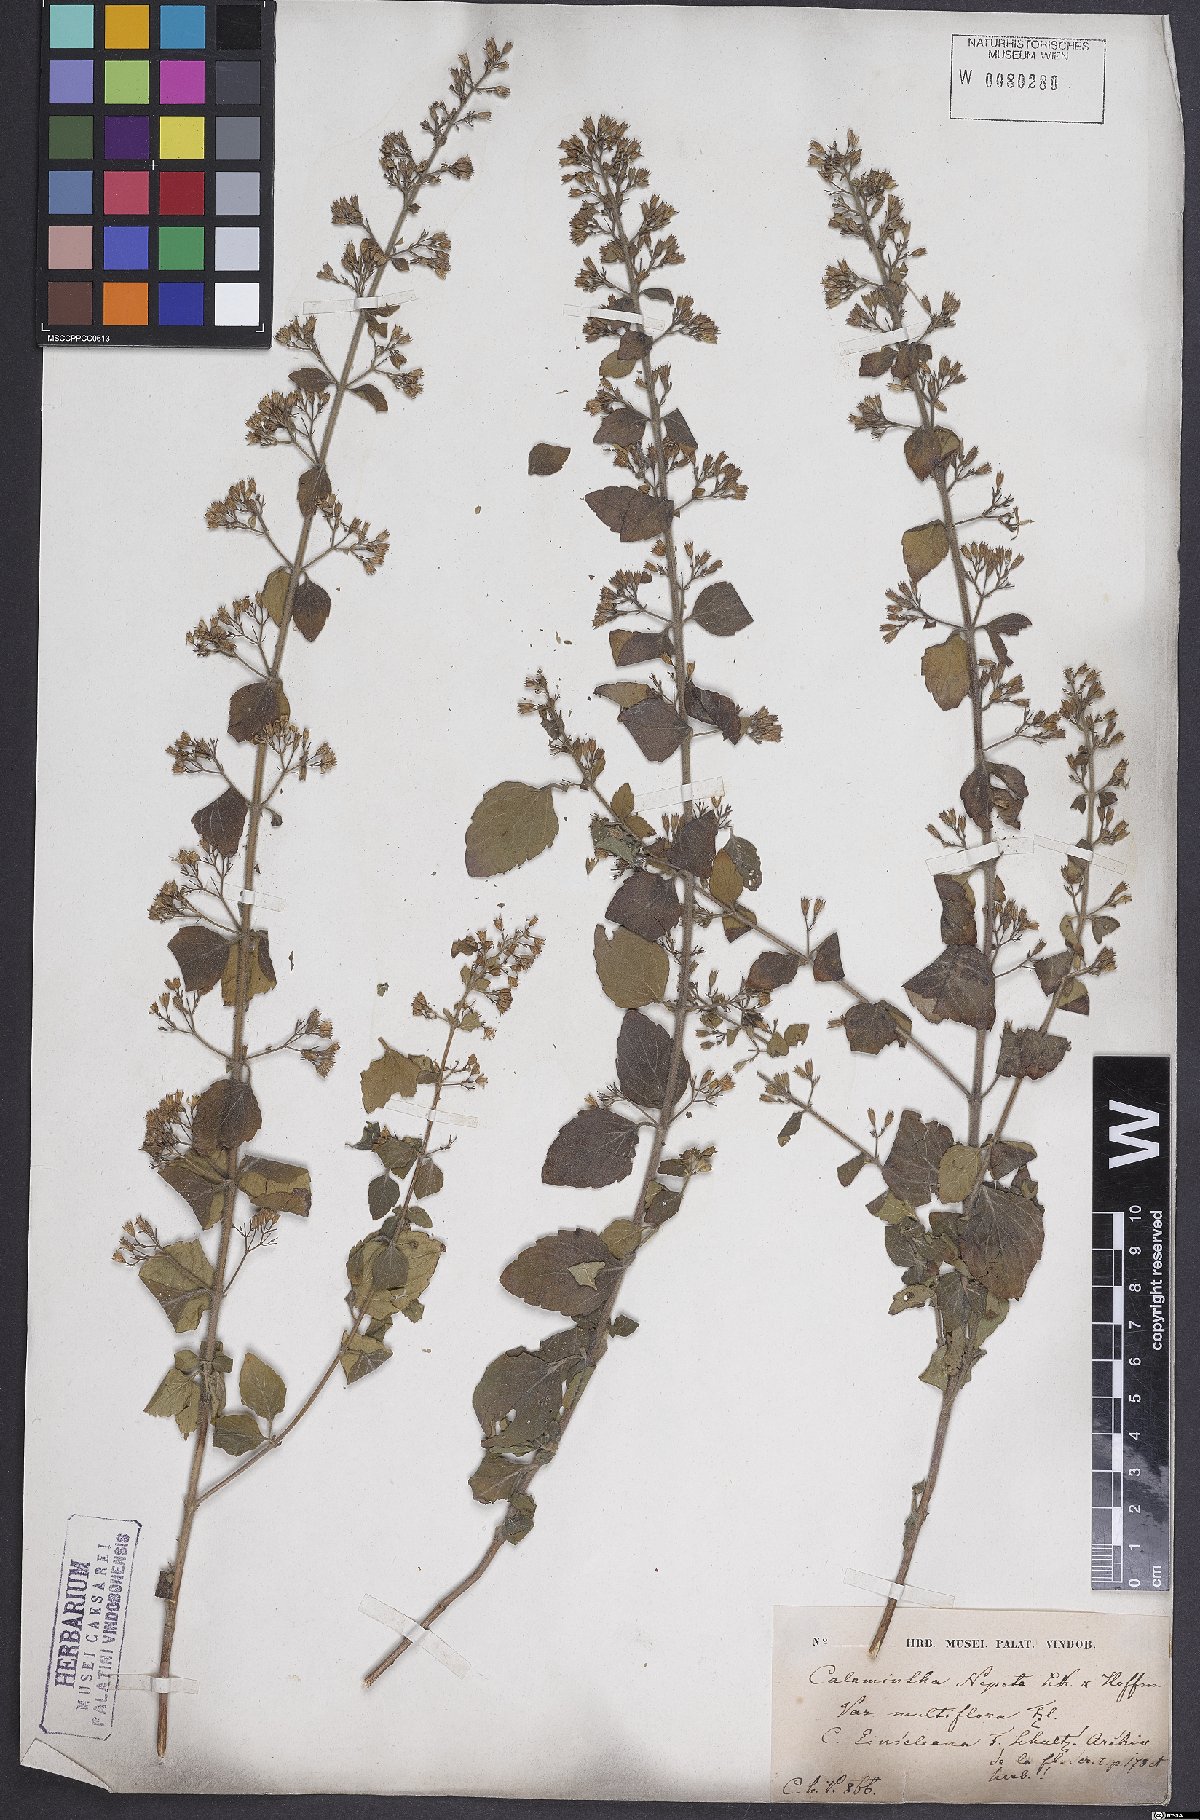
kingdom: Plantae
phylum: Tracheophyta
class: Magnoliopsida
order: Lamiales
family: Lamiaceae
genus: Clinopodium
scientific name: Clinopodium nepeta
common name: Lesser calamint
